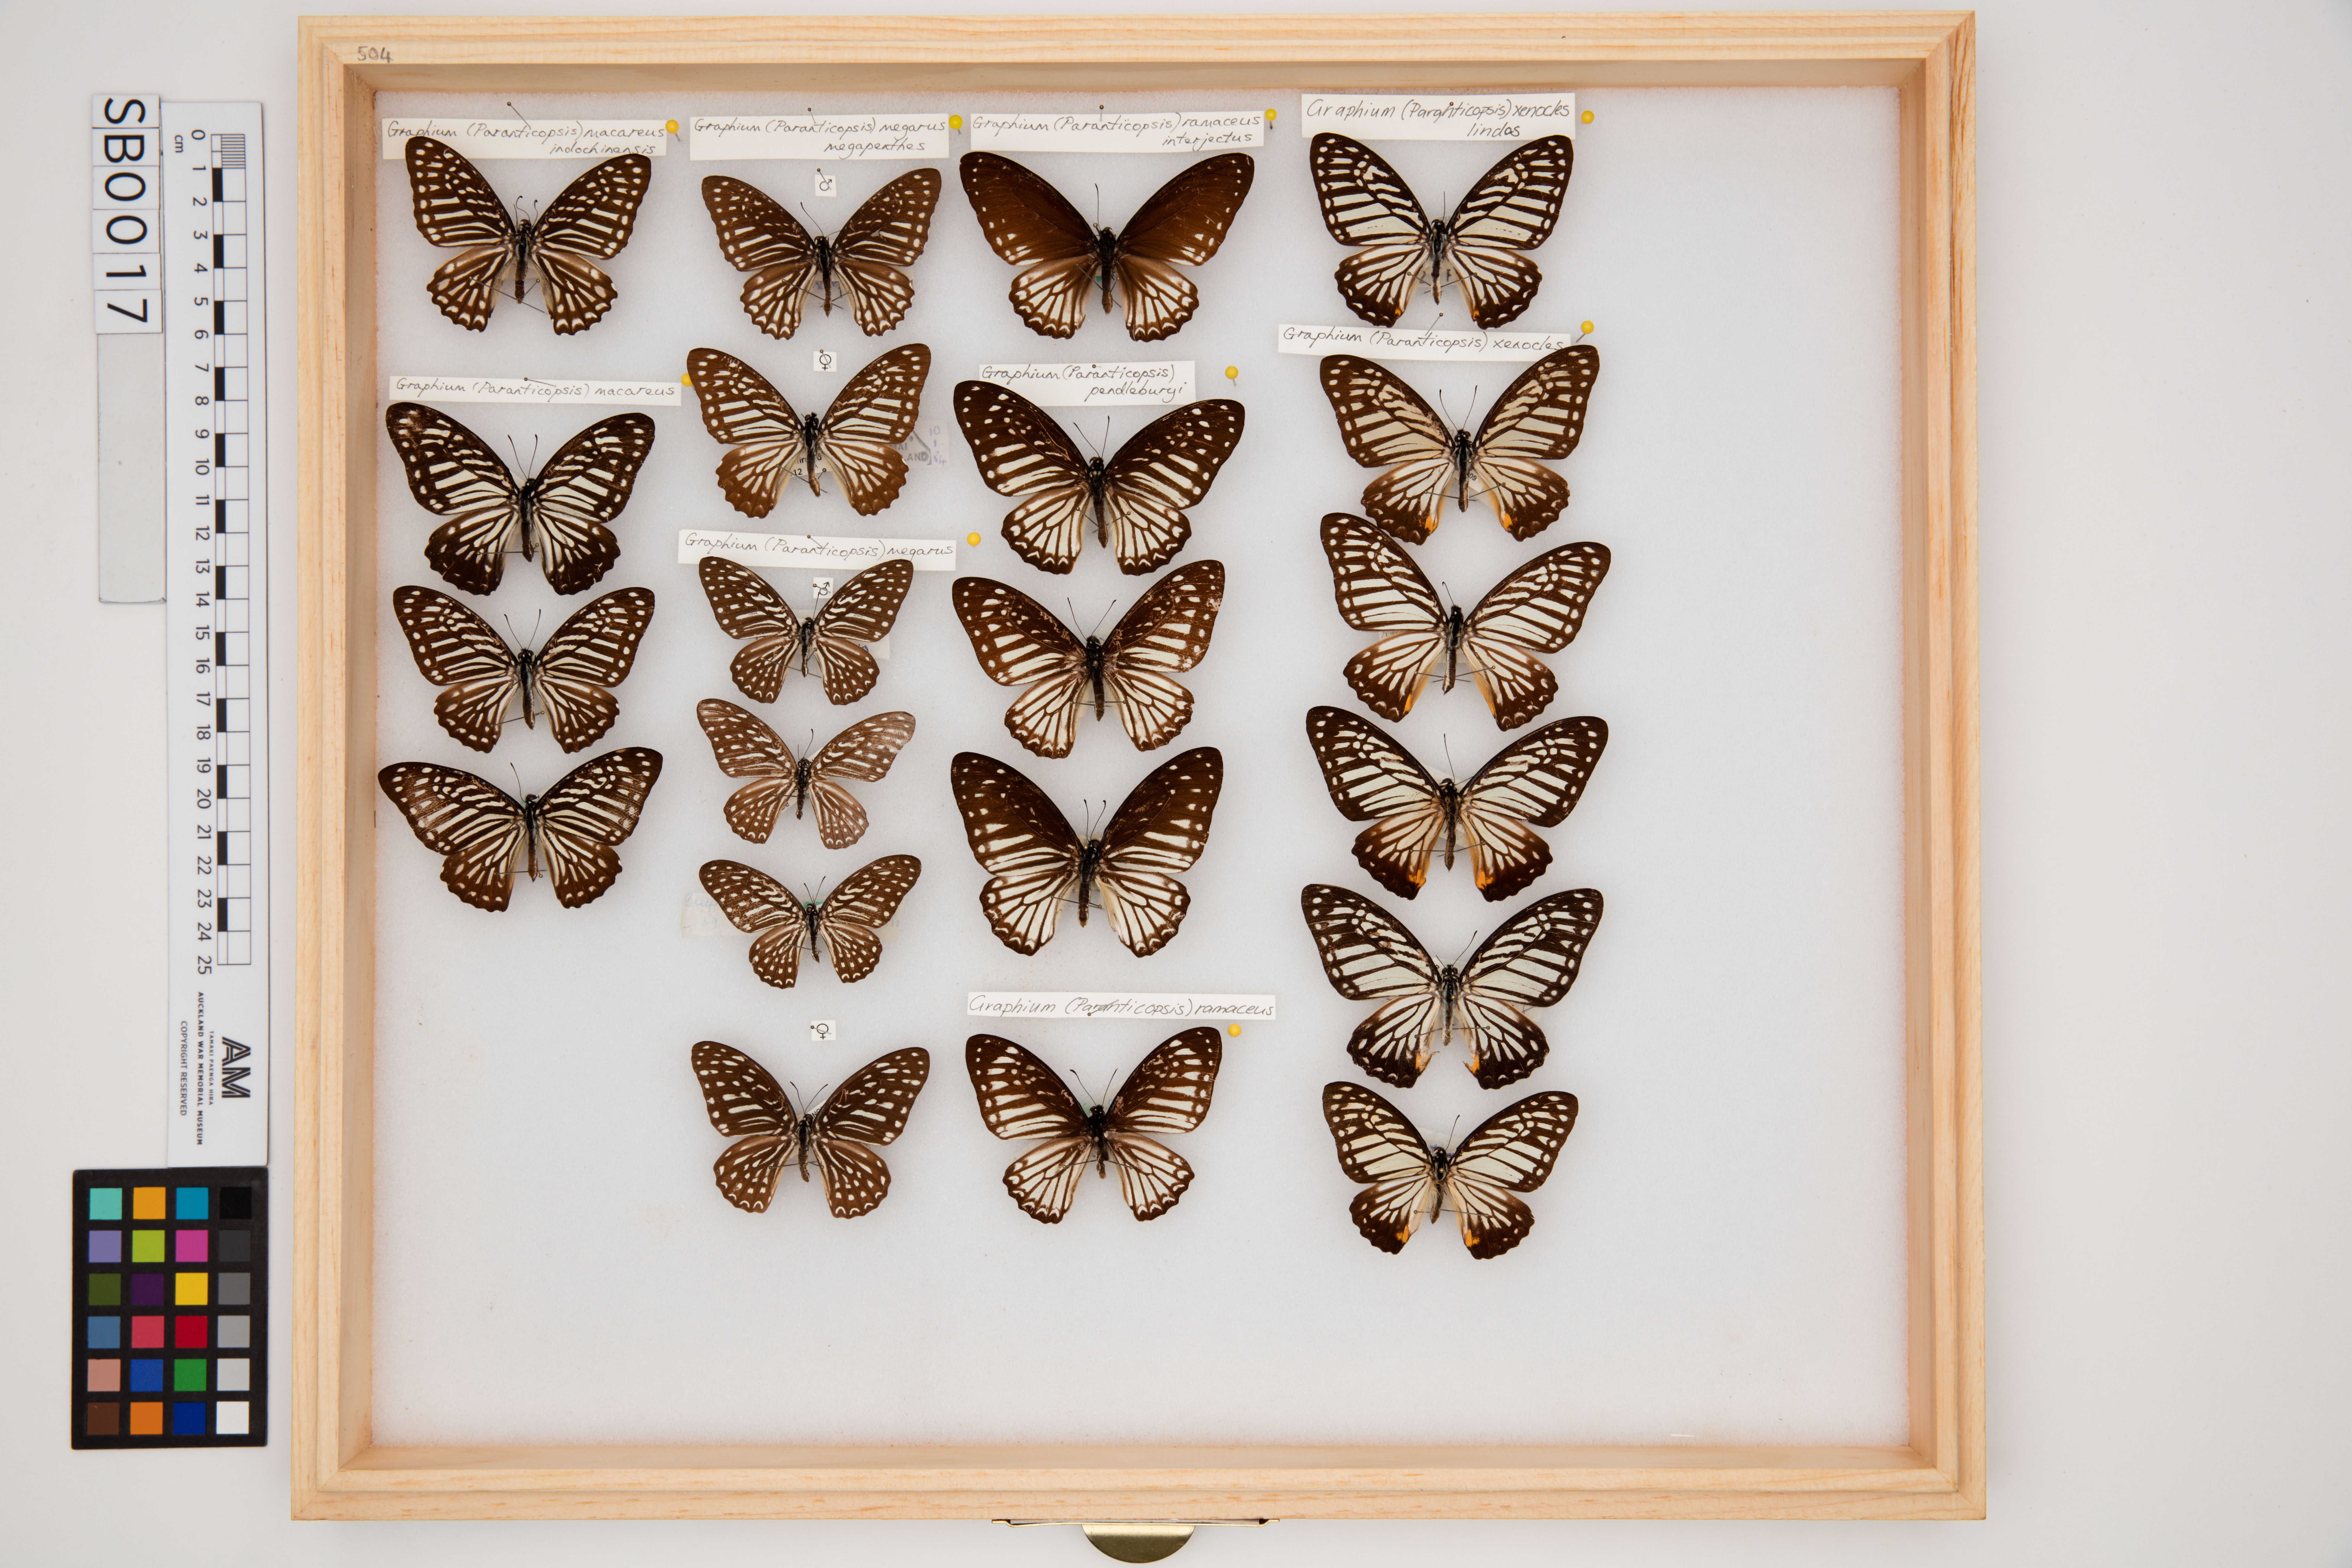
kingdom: Animalia
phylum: Arthropoda
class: Insecta
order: Lepidoptera
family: Papilionidae
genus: Graphium
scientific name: Graphium megarus
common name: Spotted zebra
